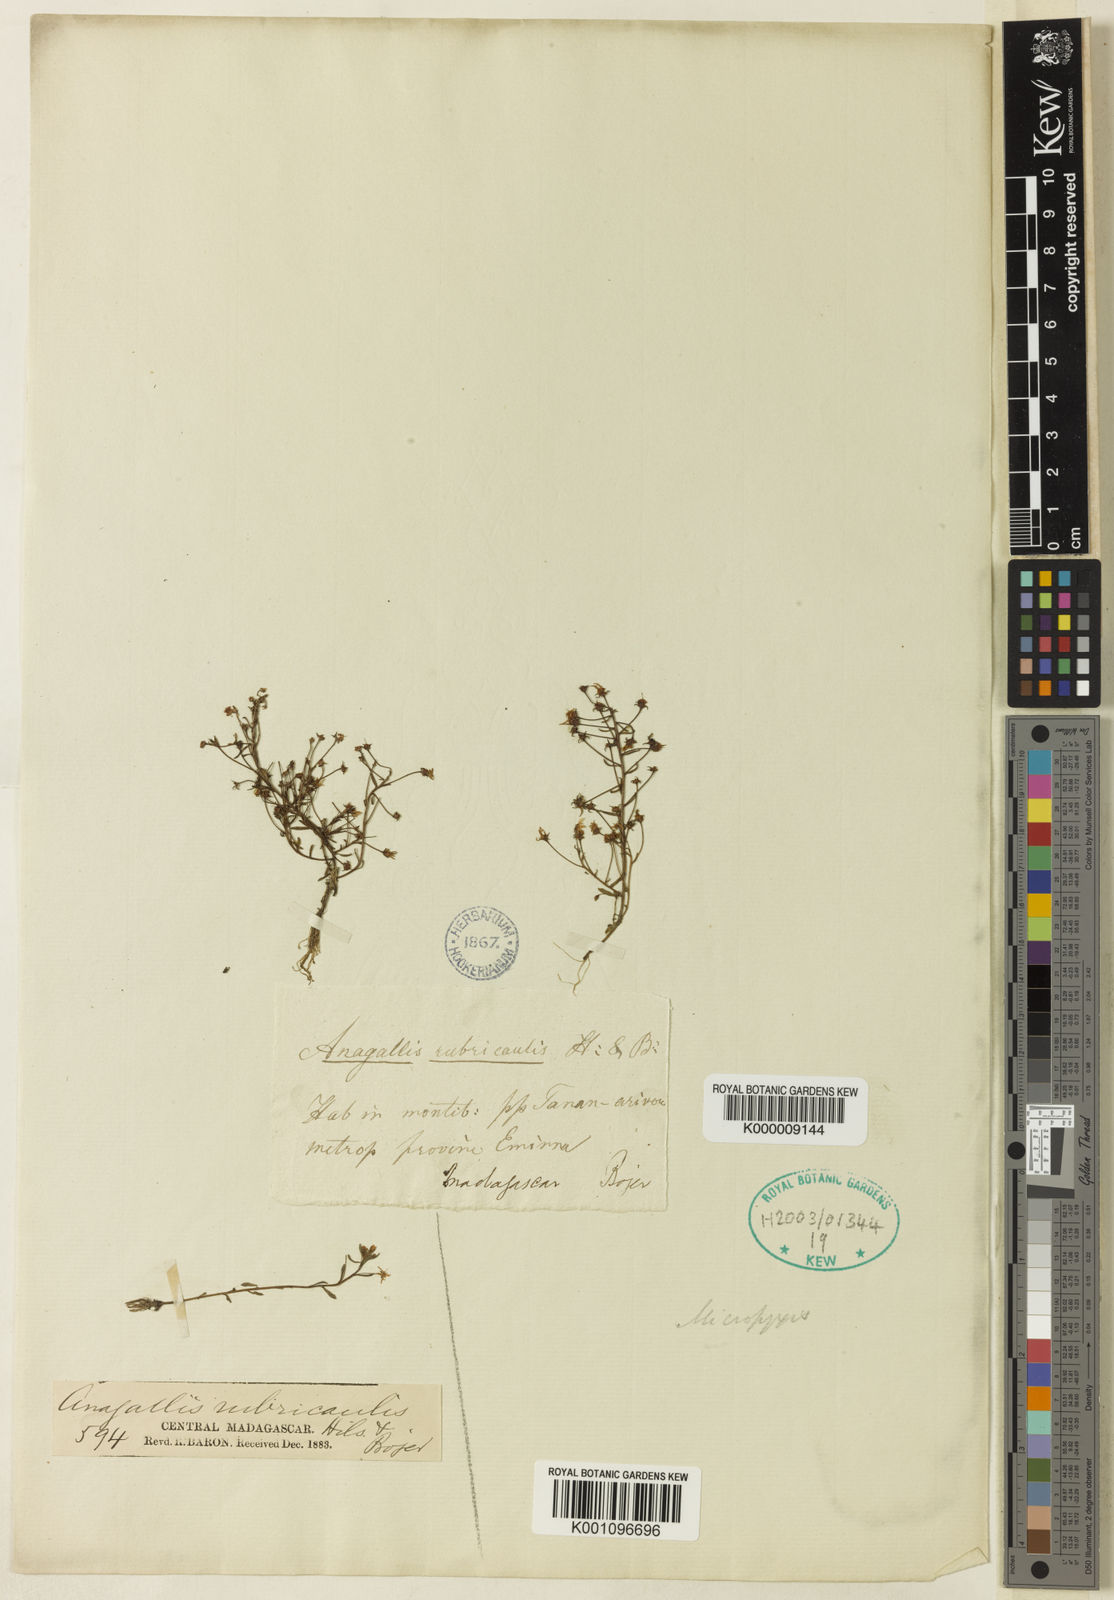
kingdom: Plantae
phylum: Tracheophyta
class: Magnoliopsida
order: Ericales
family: Primulaceae
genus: Lysimachia
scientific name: Lysimachia Anagallis spec
